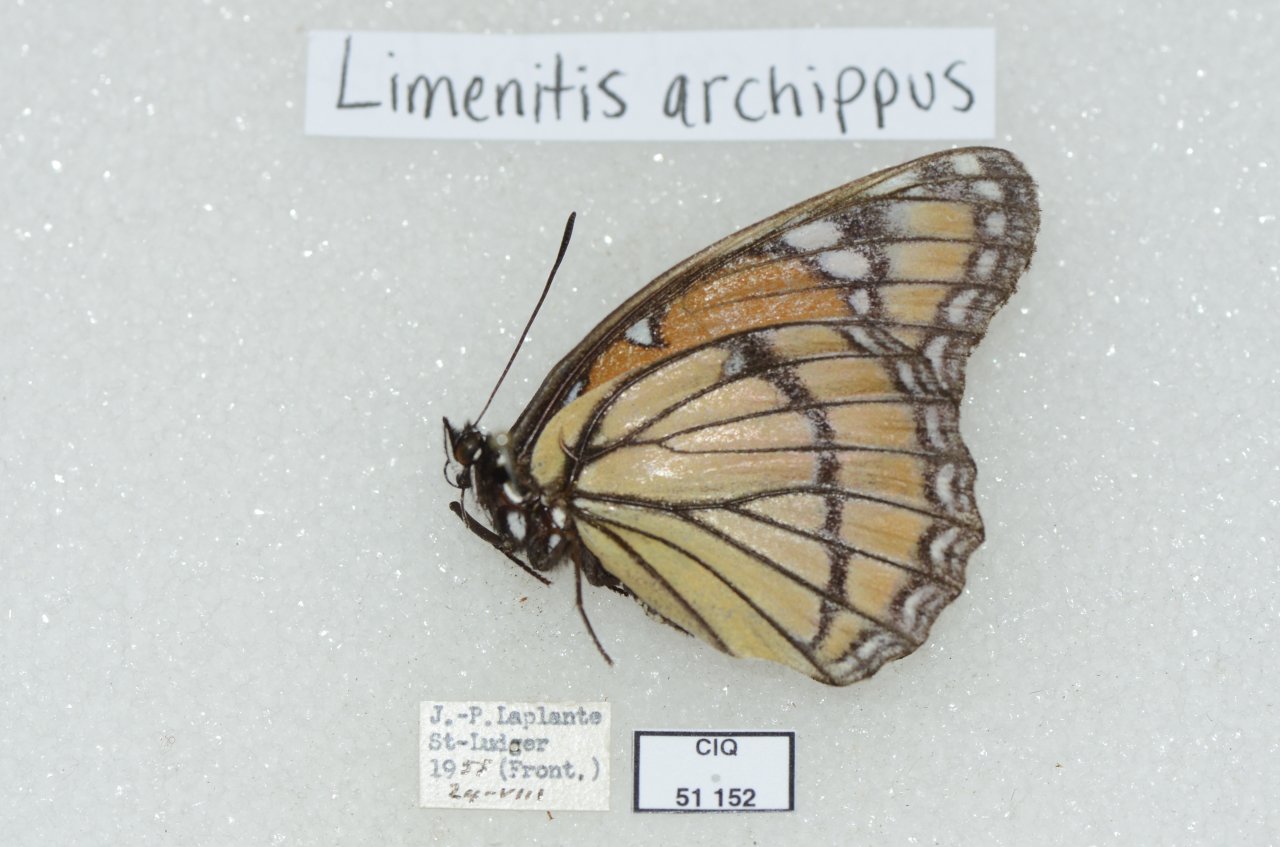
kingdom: Animalia
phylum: Arthropoda
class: Insecta
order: Lepidoptera
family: Nymphalidae
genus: Limenitis
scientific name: Limenitis archippus
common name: Viceroy
